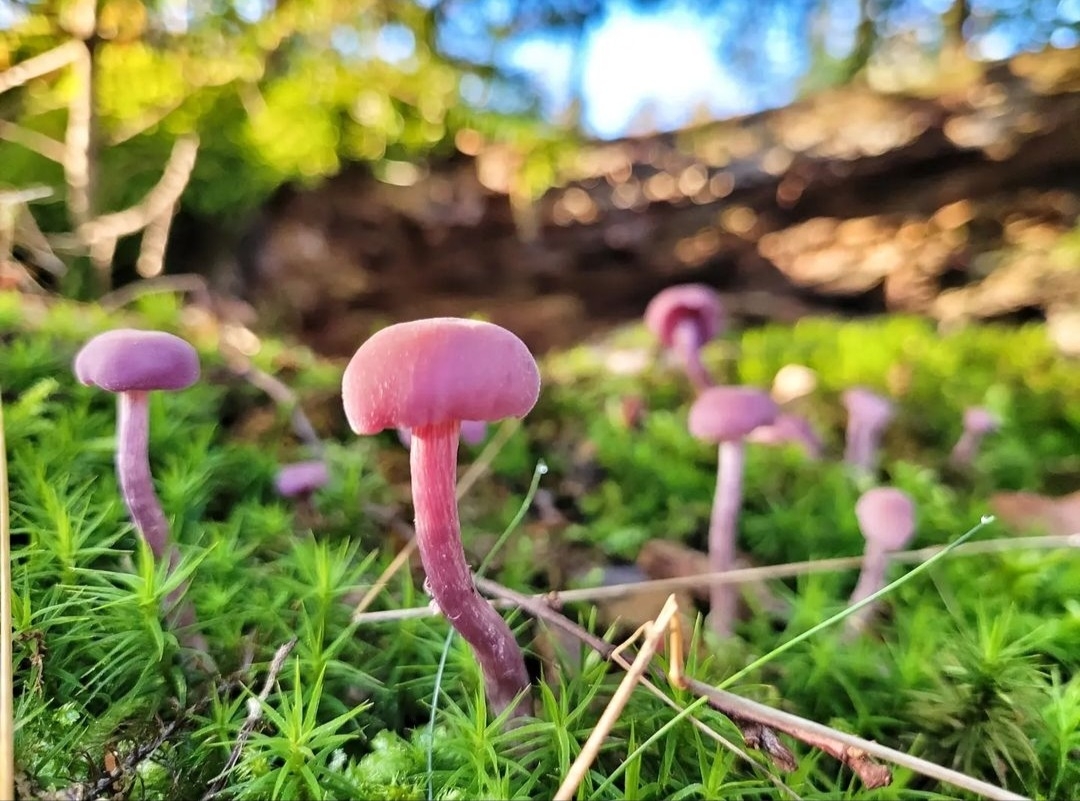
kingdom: Fungi
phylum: Basidiomycota
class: Agaricomycetes
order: Agaricales
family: Hydnangiaceae
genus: Laccaria
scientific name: Laccaria amethystina
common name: violet ametysthat
